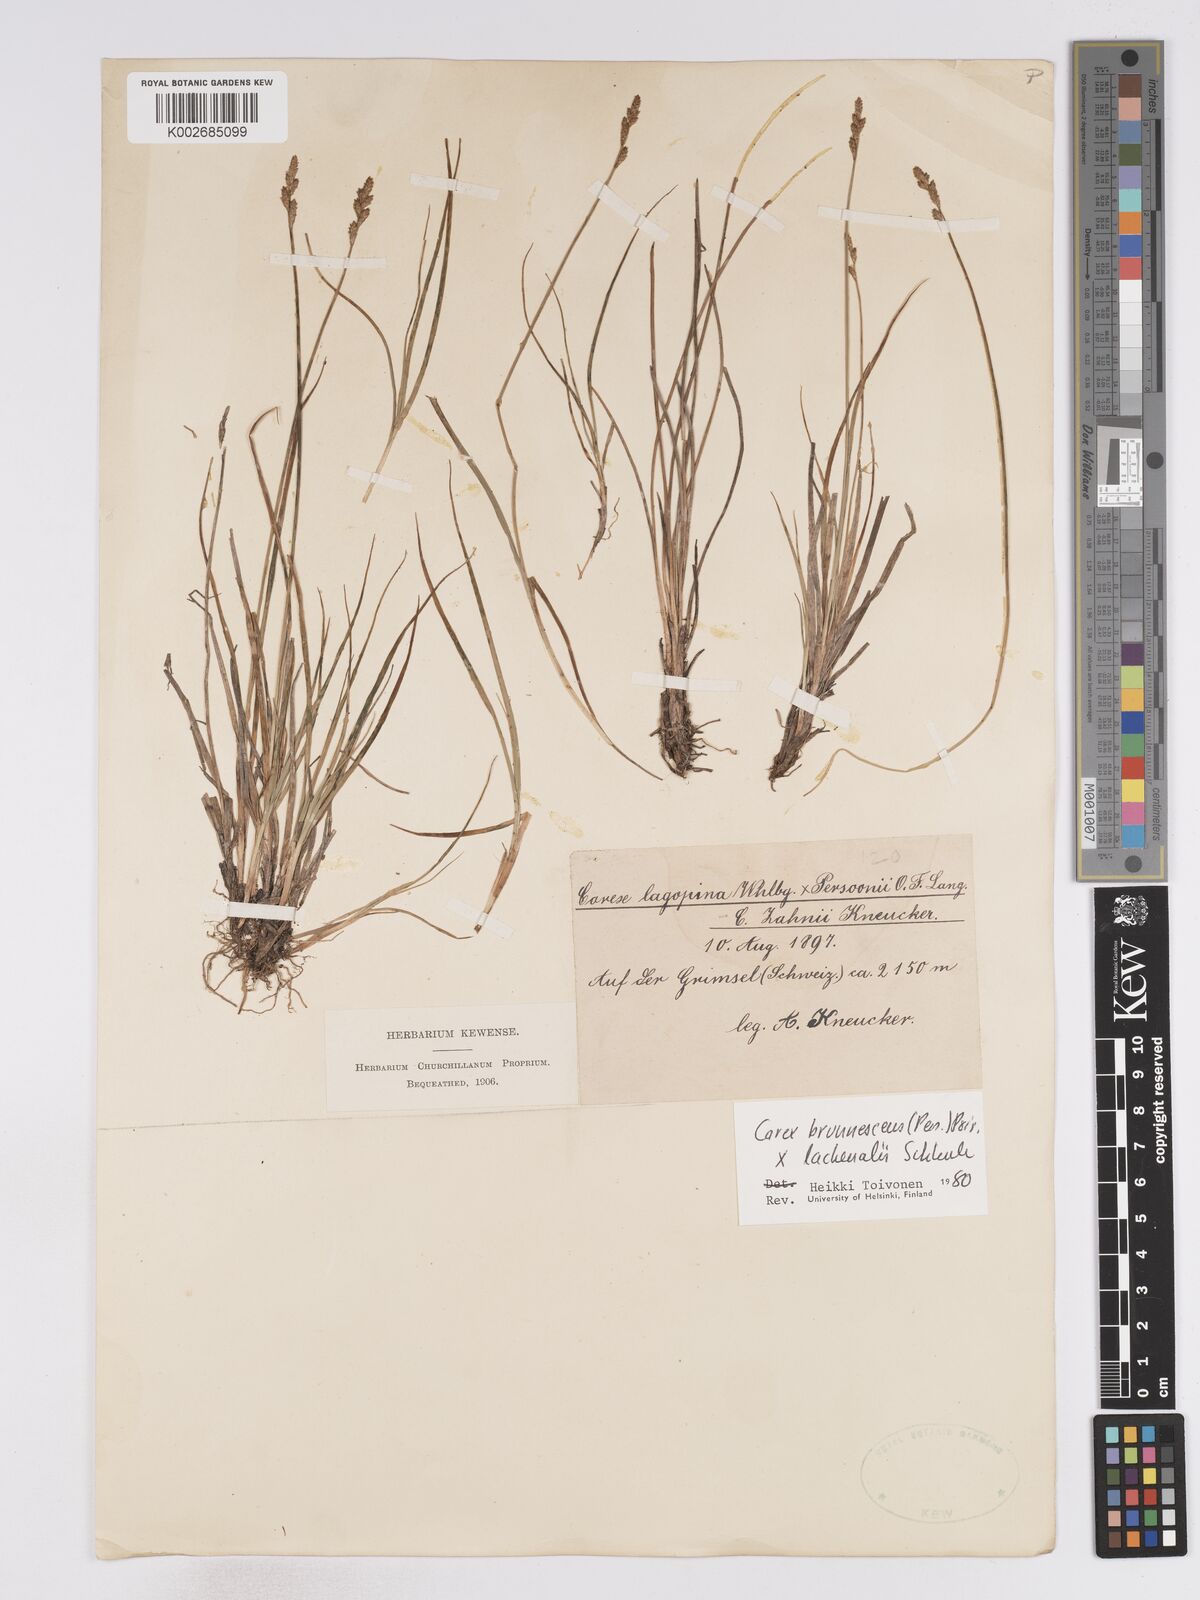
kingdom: Plantae
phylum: Tracheophyta
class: Liliopsida
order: Poales
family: Cyperaceae
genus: Carex
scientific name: Carex brunnescens
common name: Brown sedge
